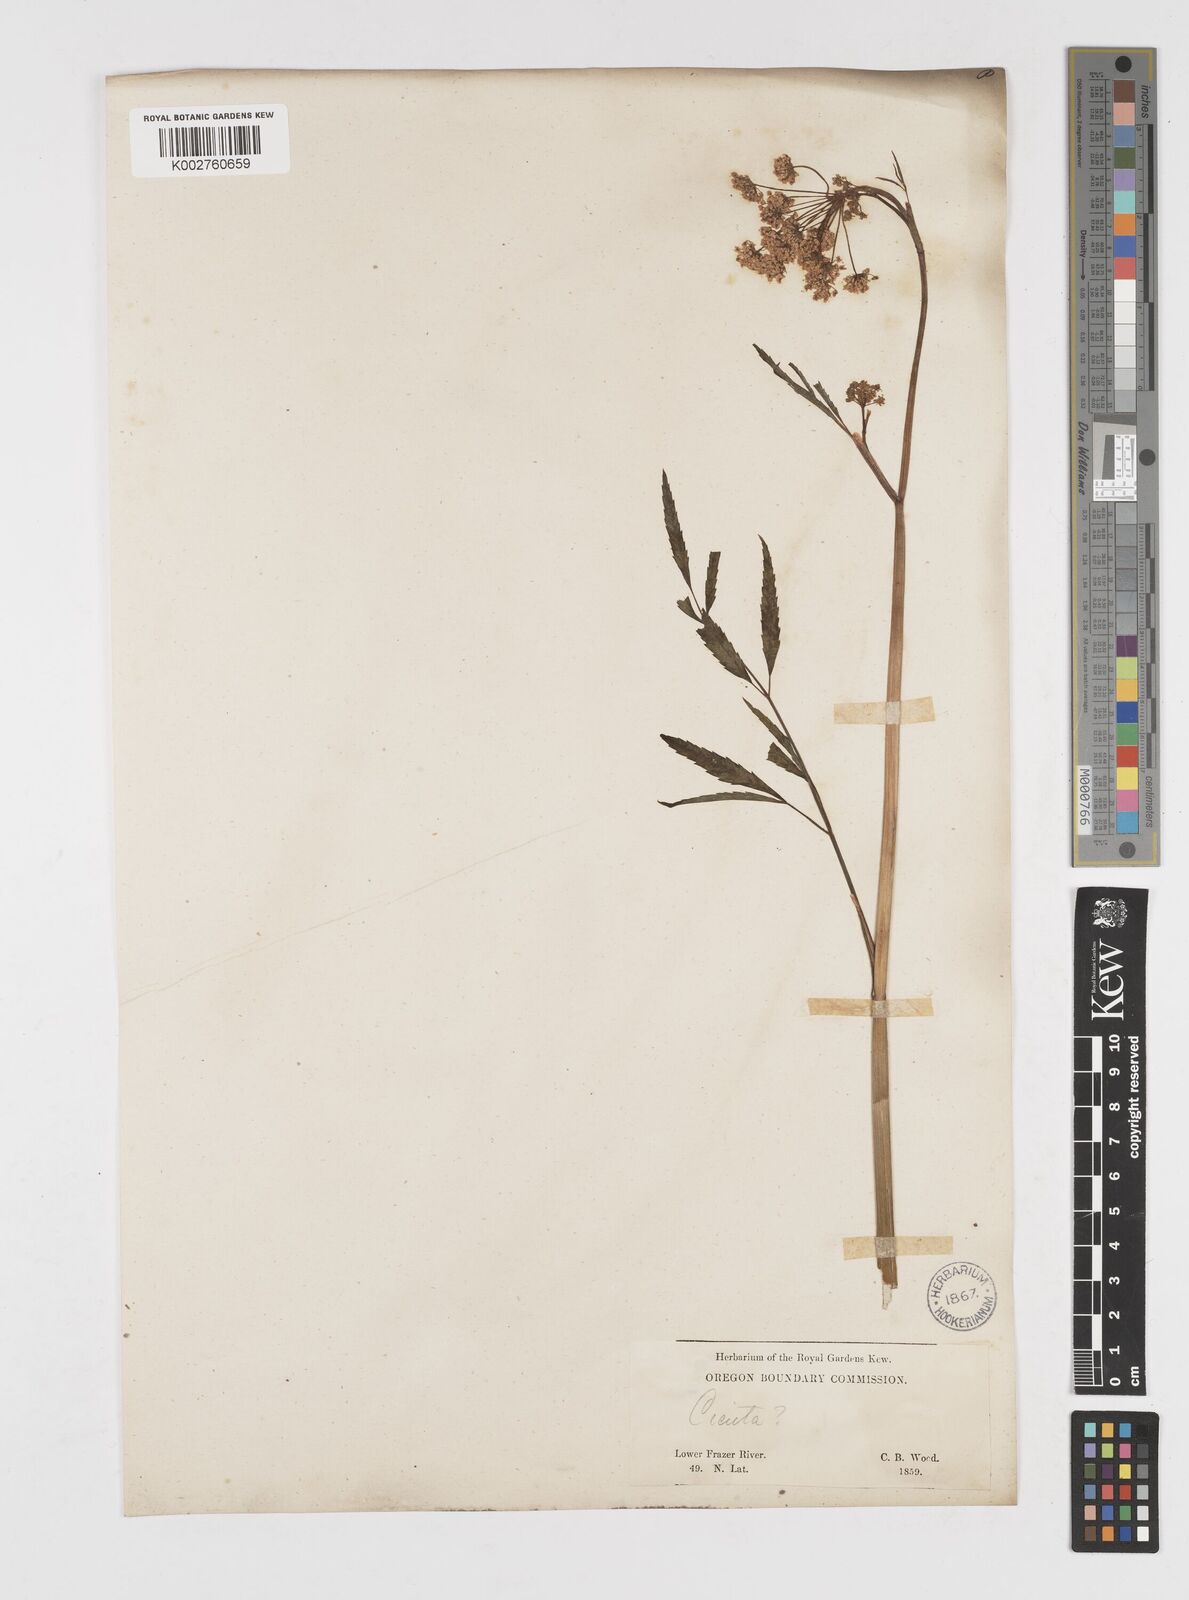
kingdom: Plantae
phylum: Tracheophyta
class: Magnoliopsida
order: Apiales
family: Apiaceae
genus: Cicuta
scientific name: Cicuta douglasii
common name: Western water-hemlock
